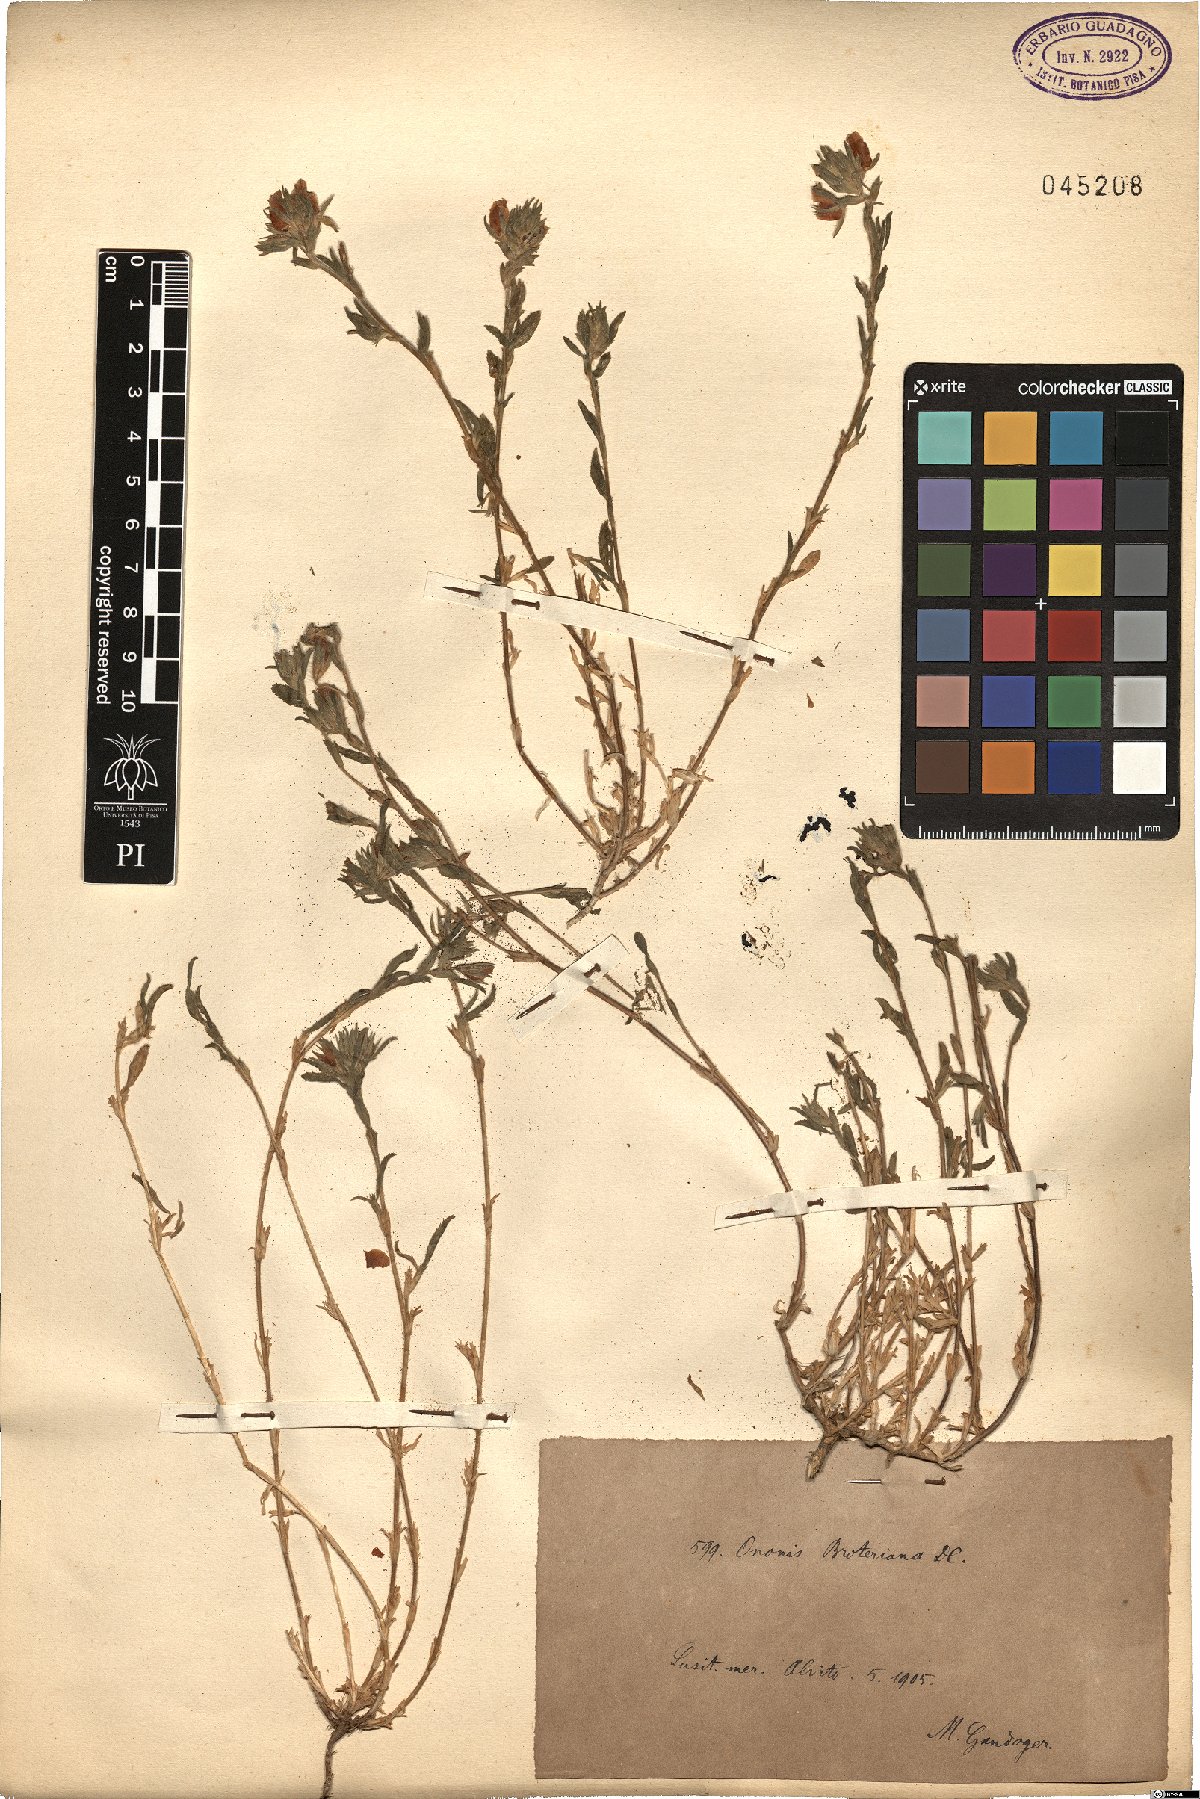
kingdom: Plantae
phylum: Tracheophyta
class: Magnoliopsida
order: Fabales
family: Fabaceae
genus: Ononis
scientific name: Ononis baetica
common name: Andalucian restharrow
